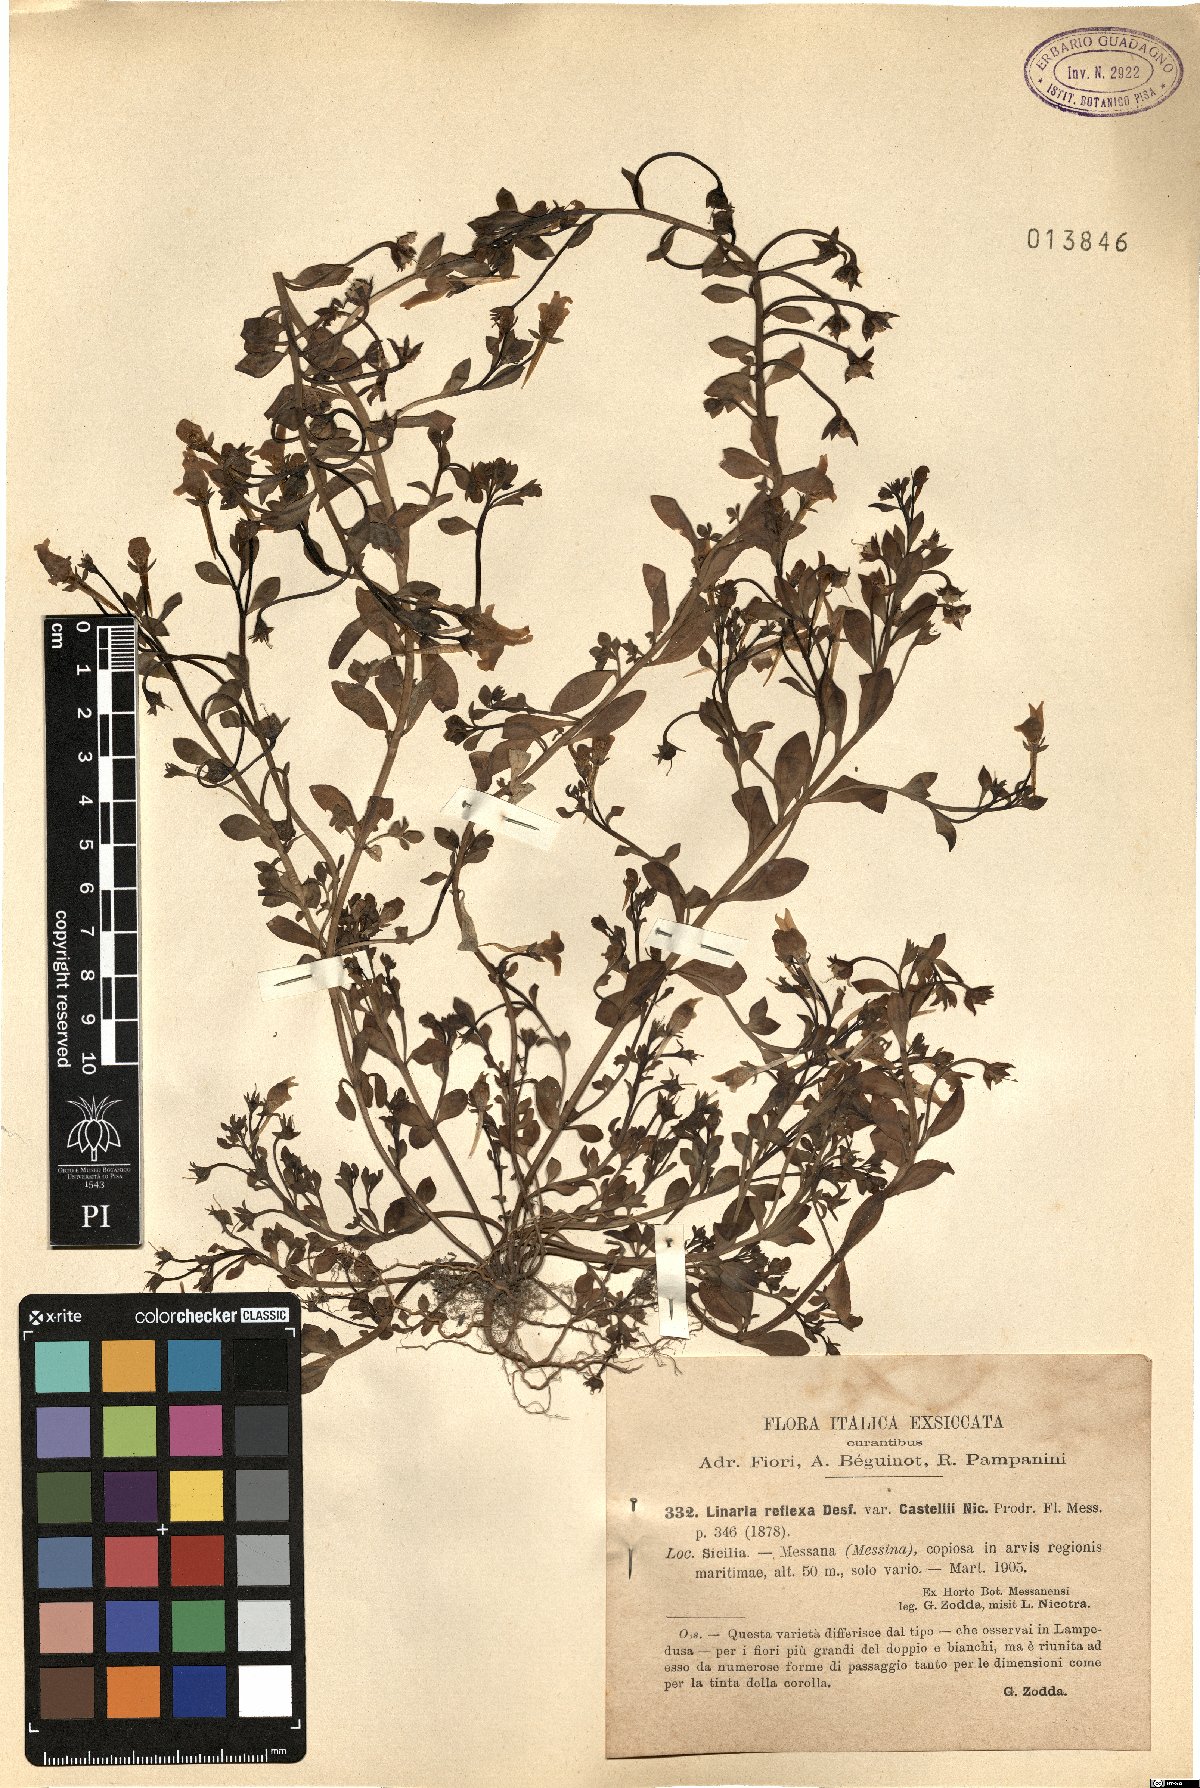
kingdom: Plantae
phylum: Tracheophyta
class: Magnoliopsida
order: Lamiales
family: Plantaginaceae
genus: Linaria
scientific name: Linaria reflexa
